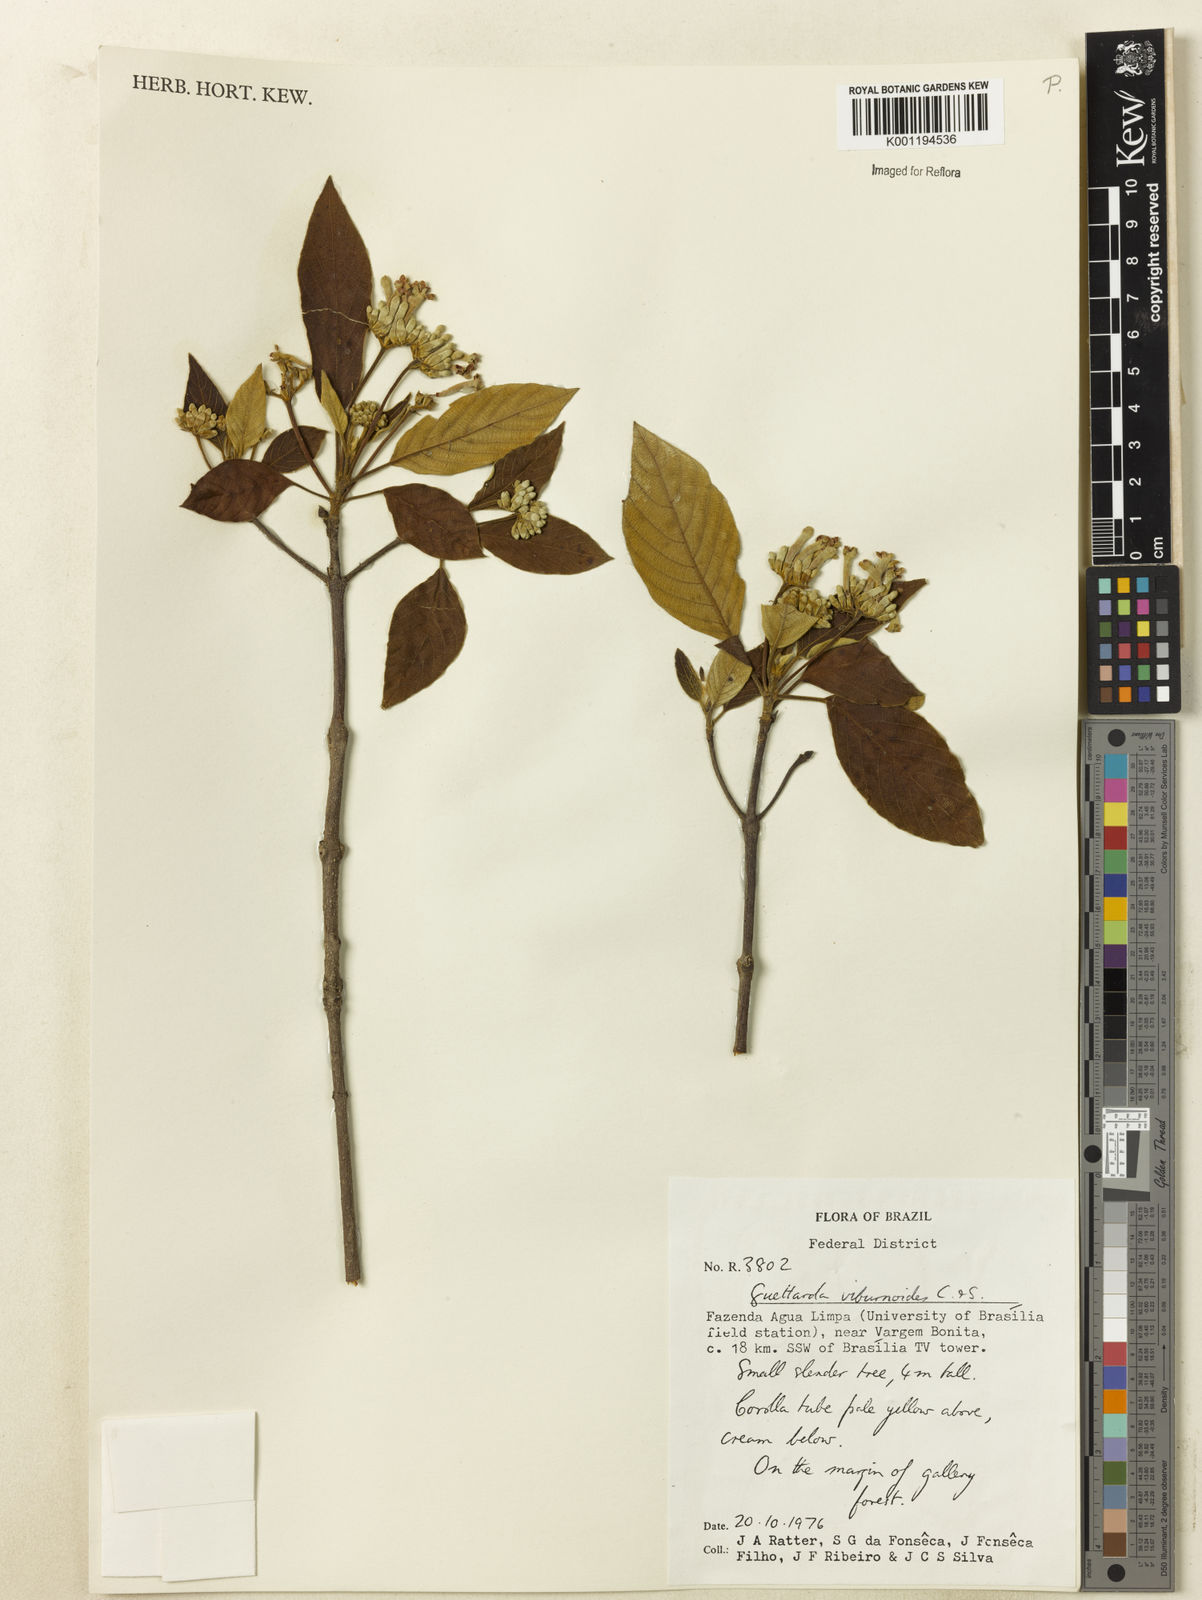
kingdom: Plantae
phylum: Tracheophyta
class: Magnoliopsida
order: Gentianales
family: Rubiaceae
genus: Guettarda
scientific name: Guettarda viburnoides
